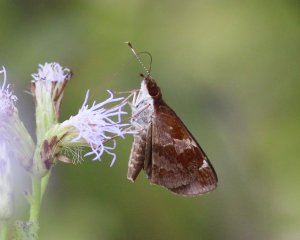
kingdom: Animalia
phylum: Arthropoda
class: Insecta
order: Lepidoptera
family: Hesperiidae
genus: Moeris
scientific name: Moeris crispinus
